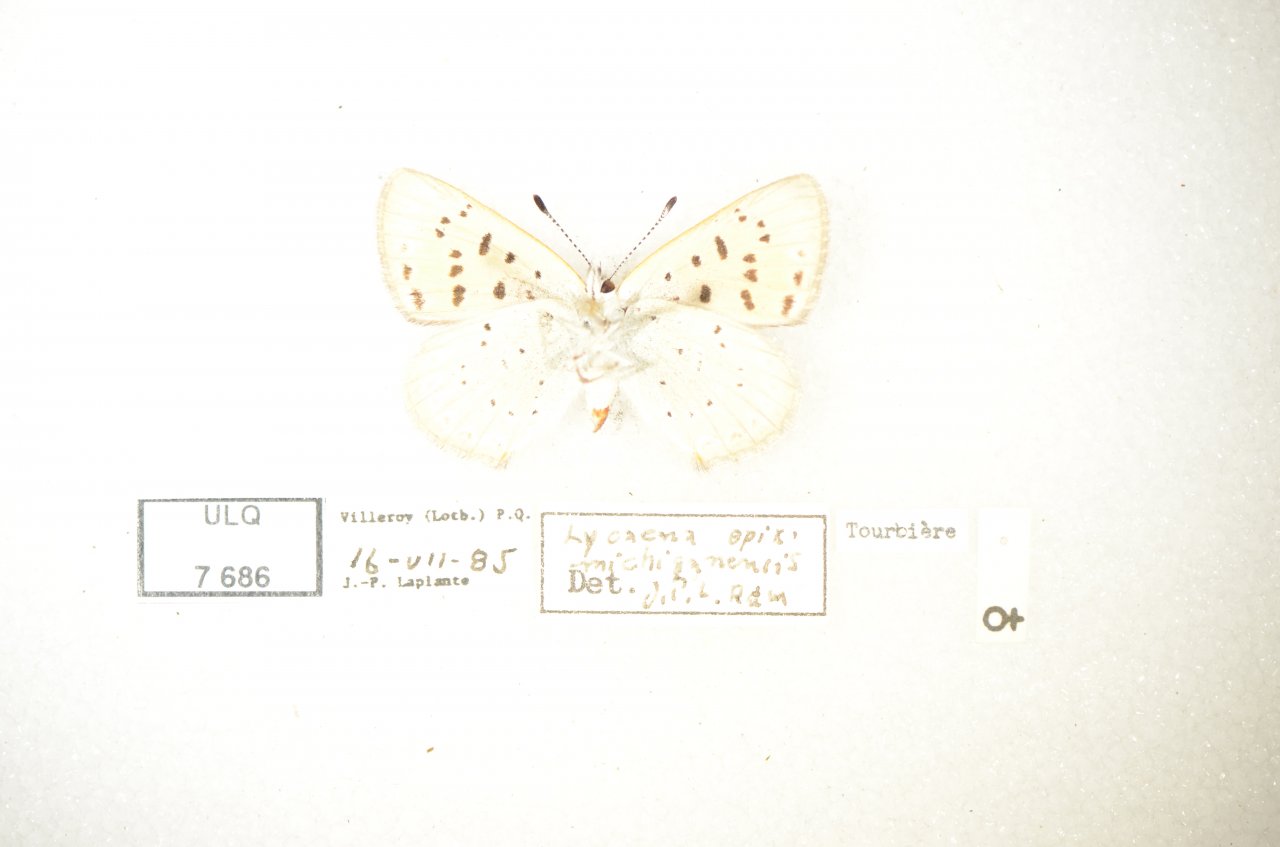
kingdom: Animalia
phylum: Arthropoda
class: Insecta
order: Lepidoptera
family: Sesiidae
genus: Sesia
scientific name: Sesia Lycaena epixanthe
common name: Bog Copper
